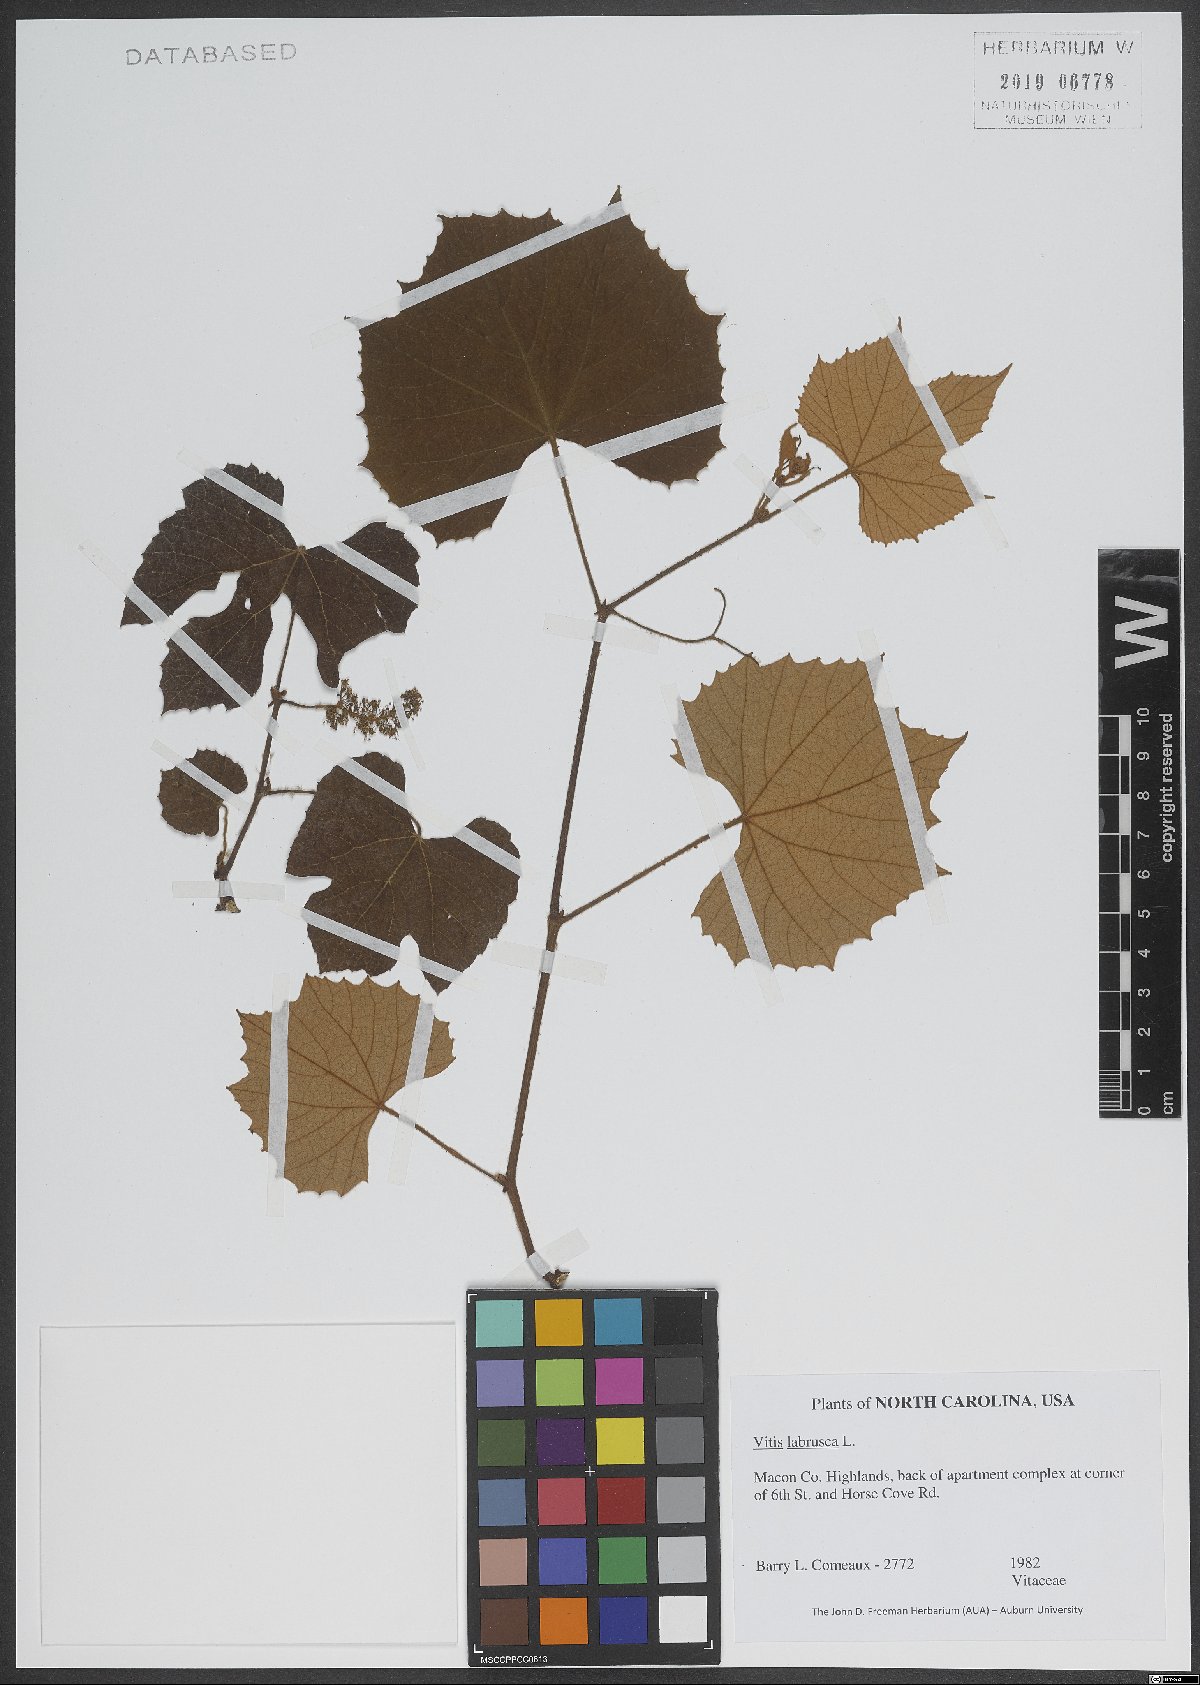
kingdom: Plantae
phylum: Tracheophyta
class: Magnoliopsida
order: Vitales
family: Vitaceae
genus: Vitis
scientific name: Vitis labrusca
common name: Concord grape
